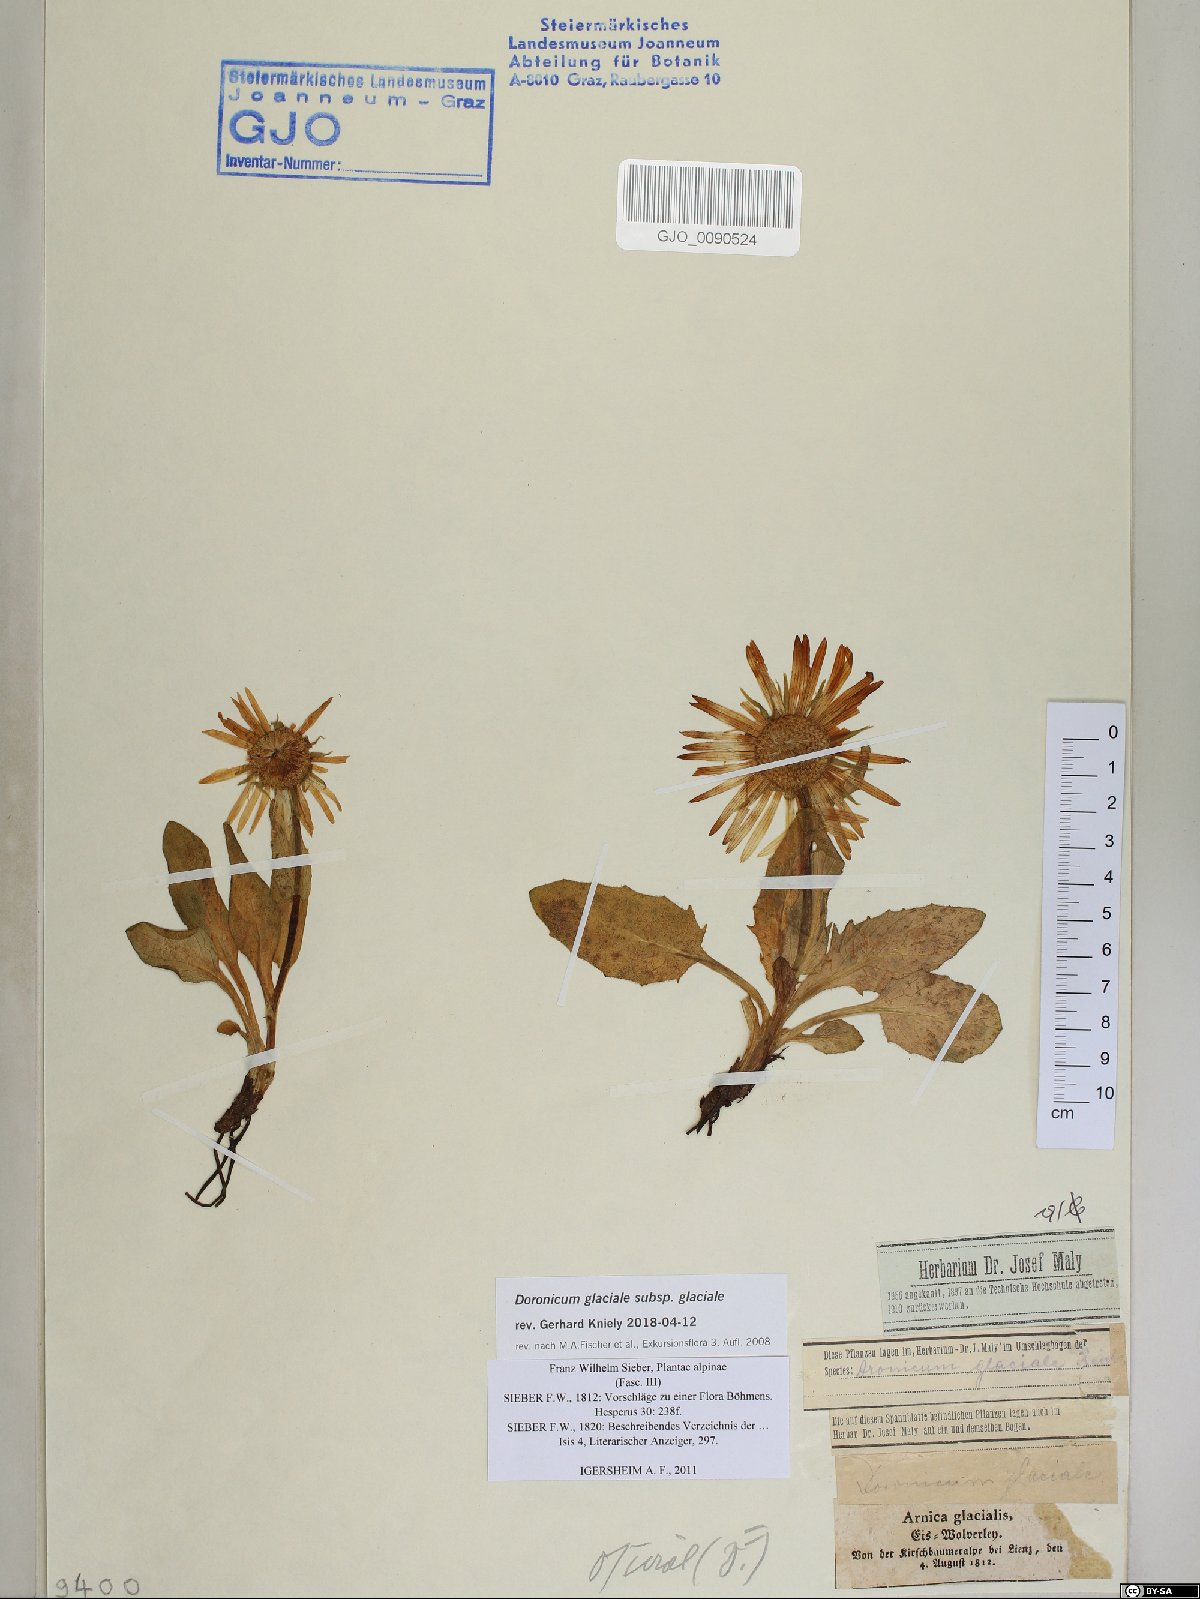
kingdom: Plantae
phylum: Tracheophyta
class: Magnoliopsida
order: Asterales
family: Asteraceae
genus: Doronicum
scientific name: Doronicum glaciale
